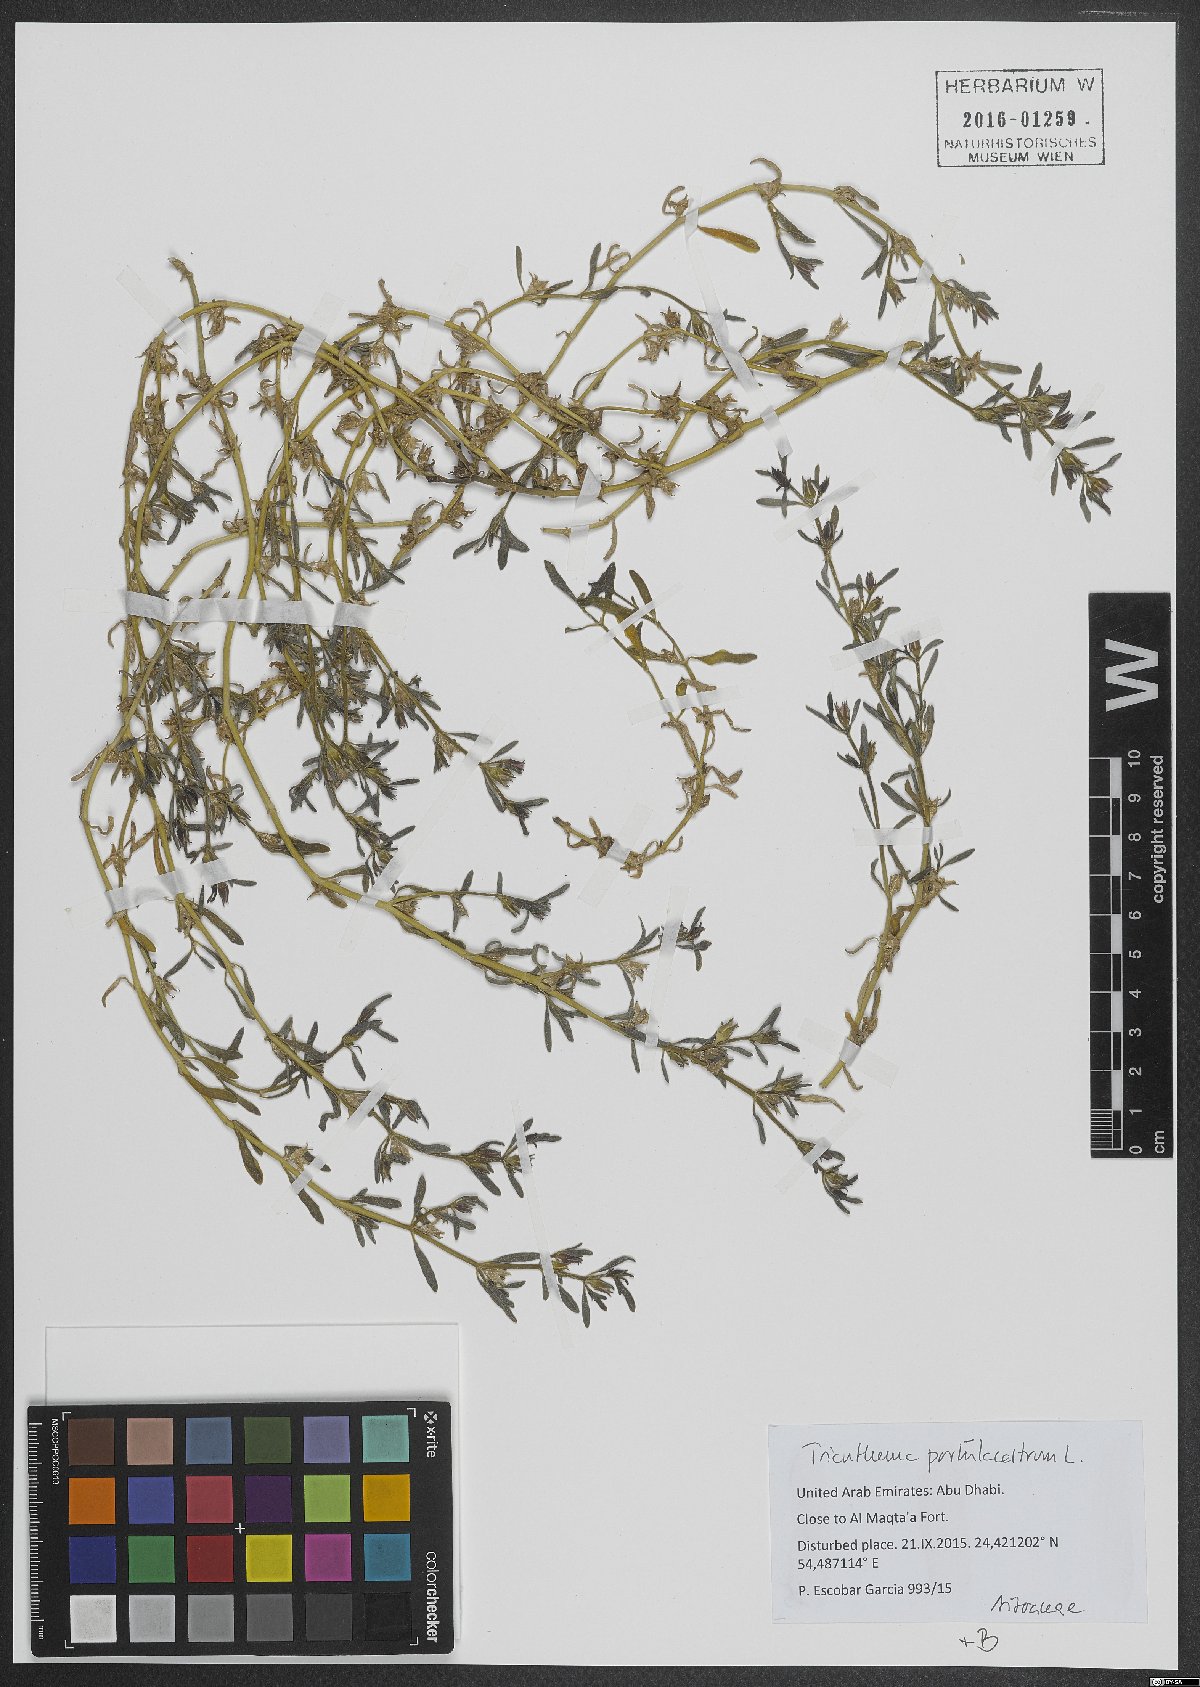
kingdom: Plantae
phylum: Tracheophyta
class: Magnoliopsida
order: Caryophyllales
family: Aizoaceae
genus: Sesuvium
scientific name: Sesuvium revolutifolium
